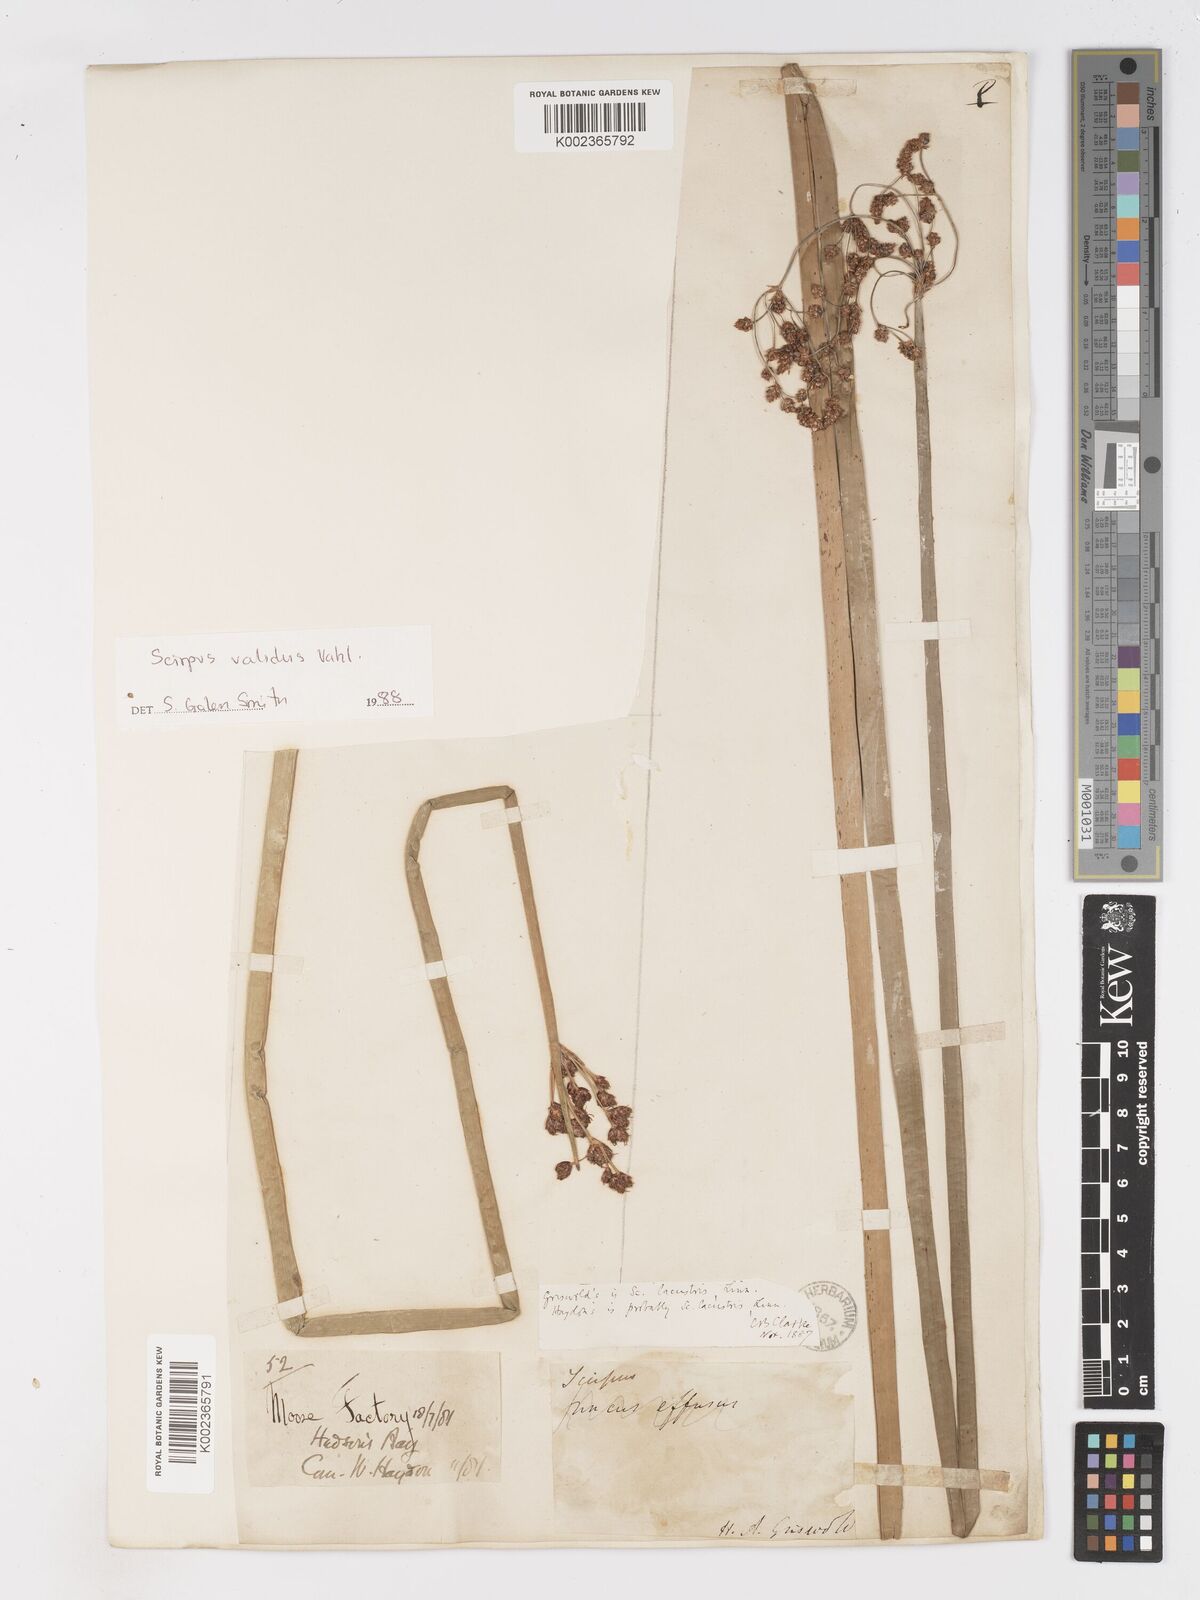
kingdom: Plantae
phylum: Tracheophyta
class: Liliopsida
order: Poales
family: Cyperaceae
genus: Schoenoplectus
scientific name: Schoenoplectus lacustris
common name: Common club-rush
